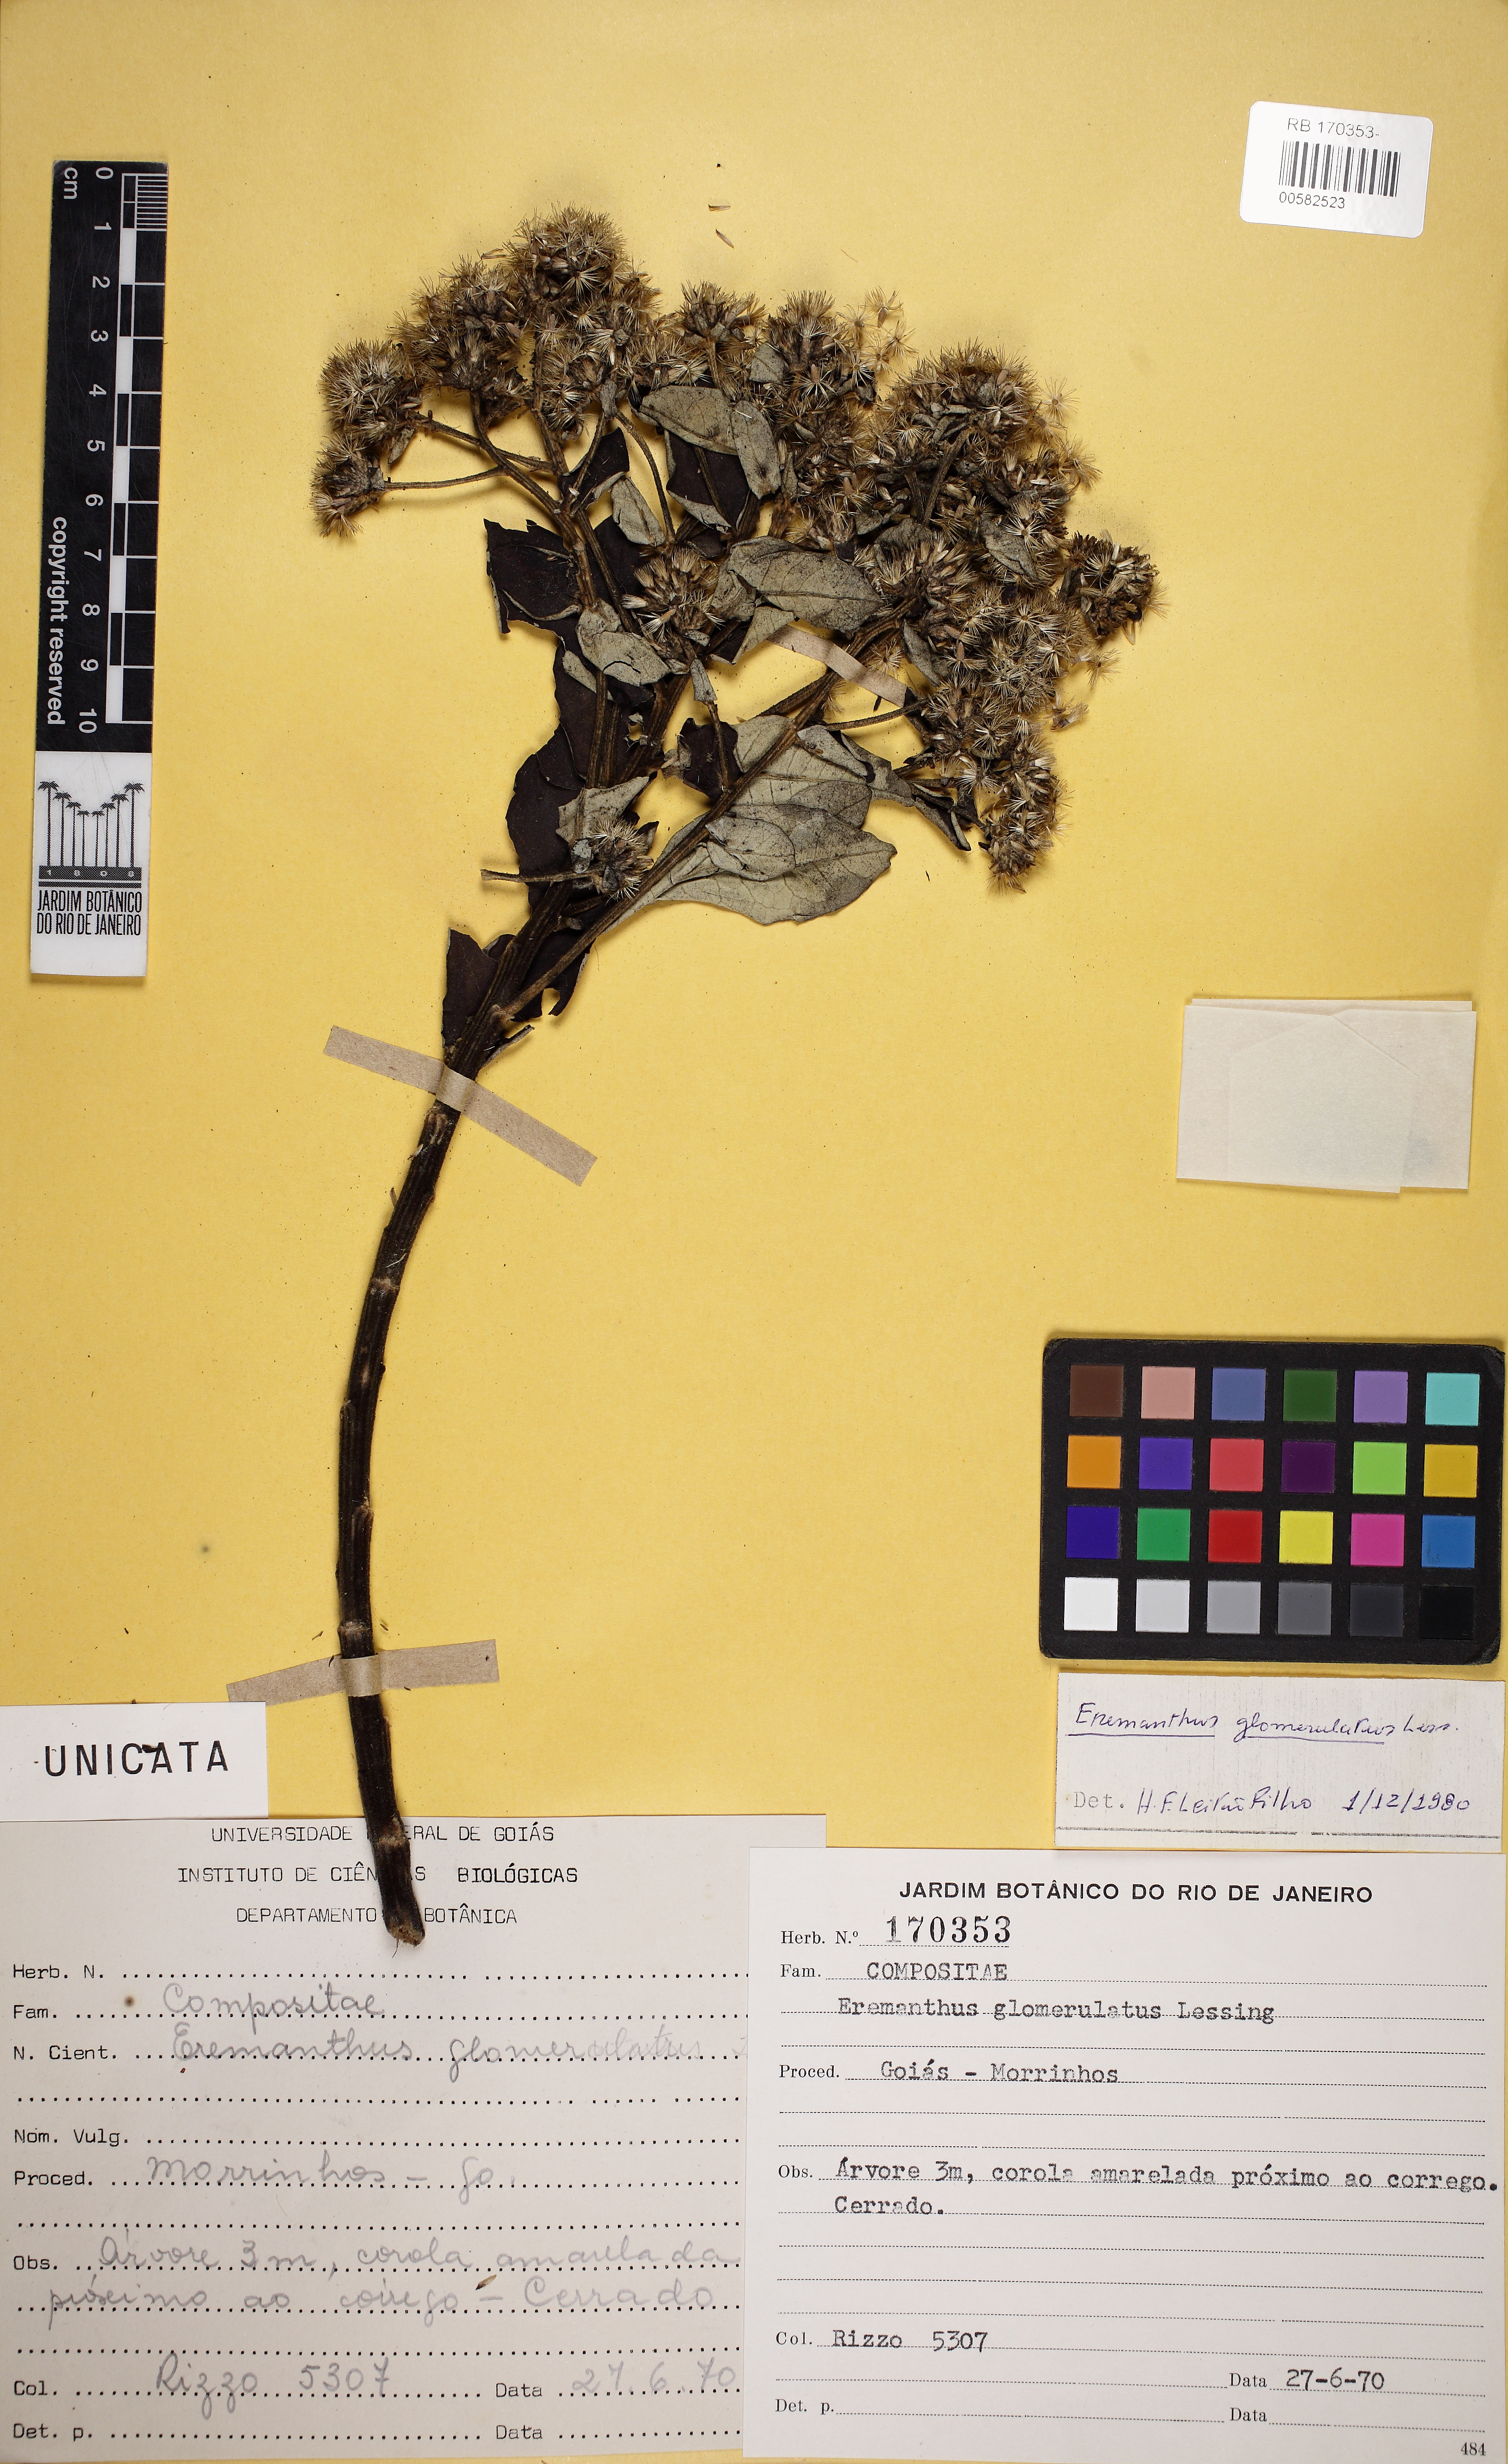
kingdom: Plantae
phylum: Tracheophyta
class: Magnoliopsida
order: Asterales
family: Asteraceae
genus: Eremanthus
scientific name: Eremanthus glomerulatus
